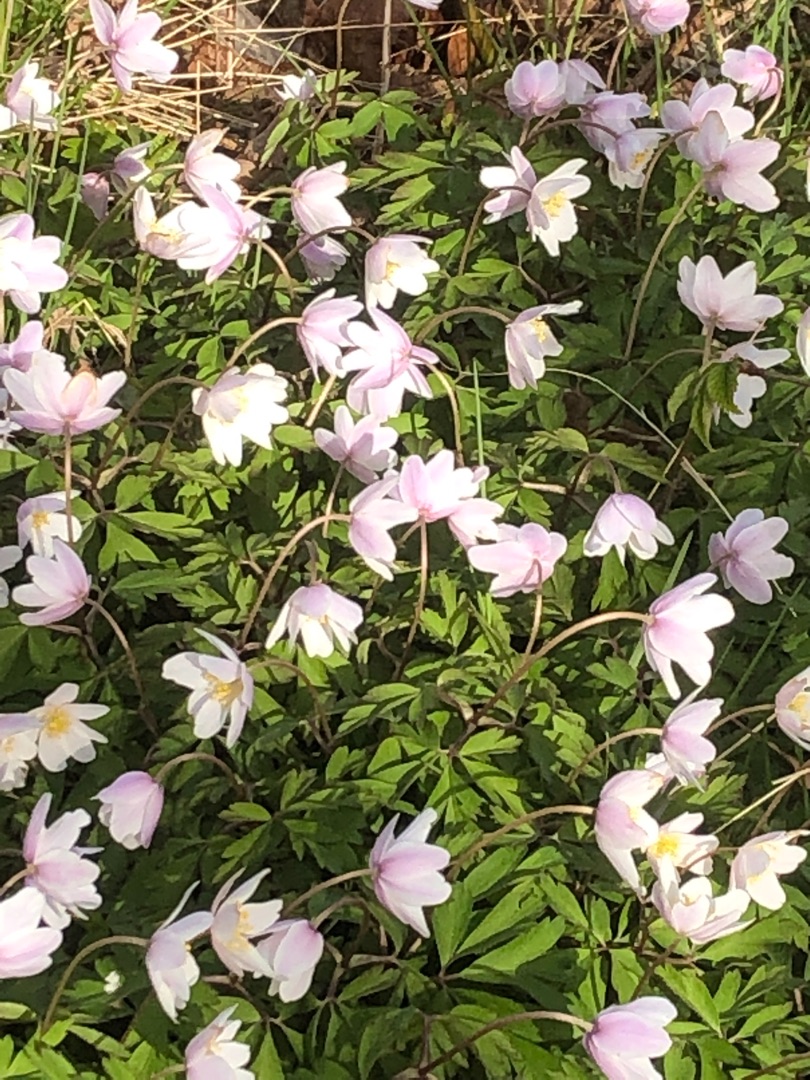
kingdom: Plantae
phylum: Tracheophyta
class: Magnoliopsida
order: Ranunculales
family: Ranunculaceae
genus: Anemone
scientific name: Anemone nemorosa
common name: Hvid anemone
